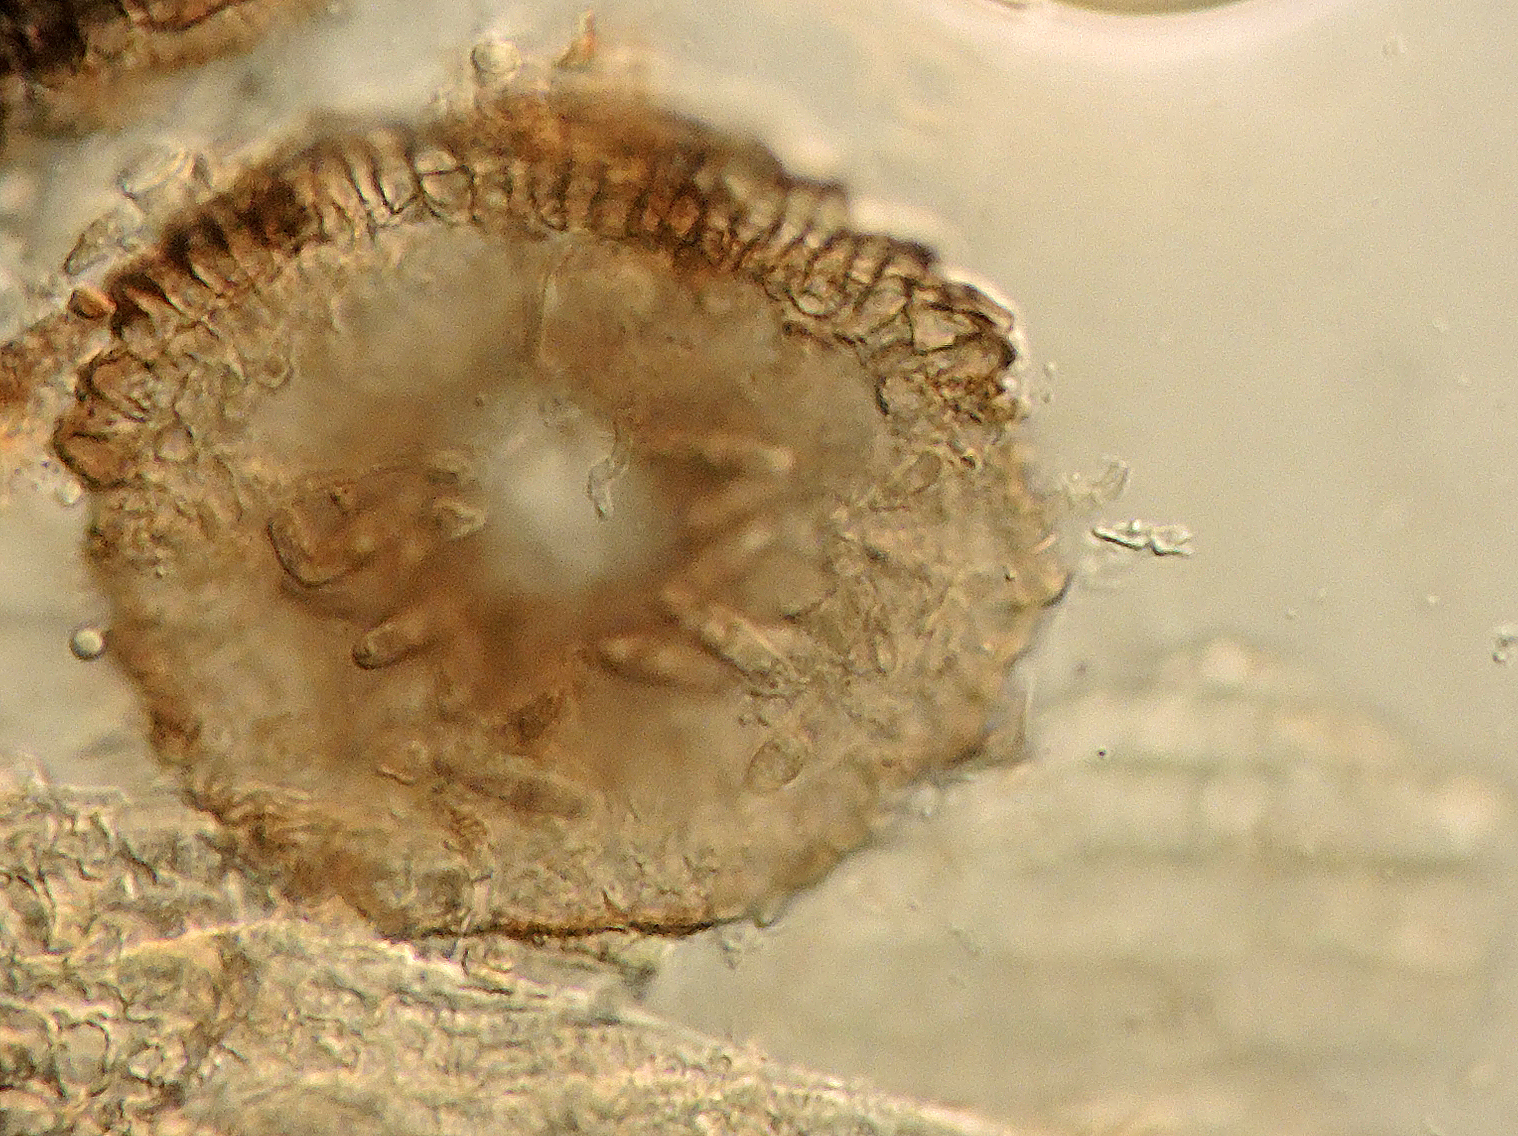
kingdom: Fungi
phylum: Ascomycota
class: Dothideomycetes
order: Microthyriales
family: Microthyriaceae
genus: Microthyrium
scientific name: Microthyrium gramineum
